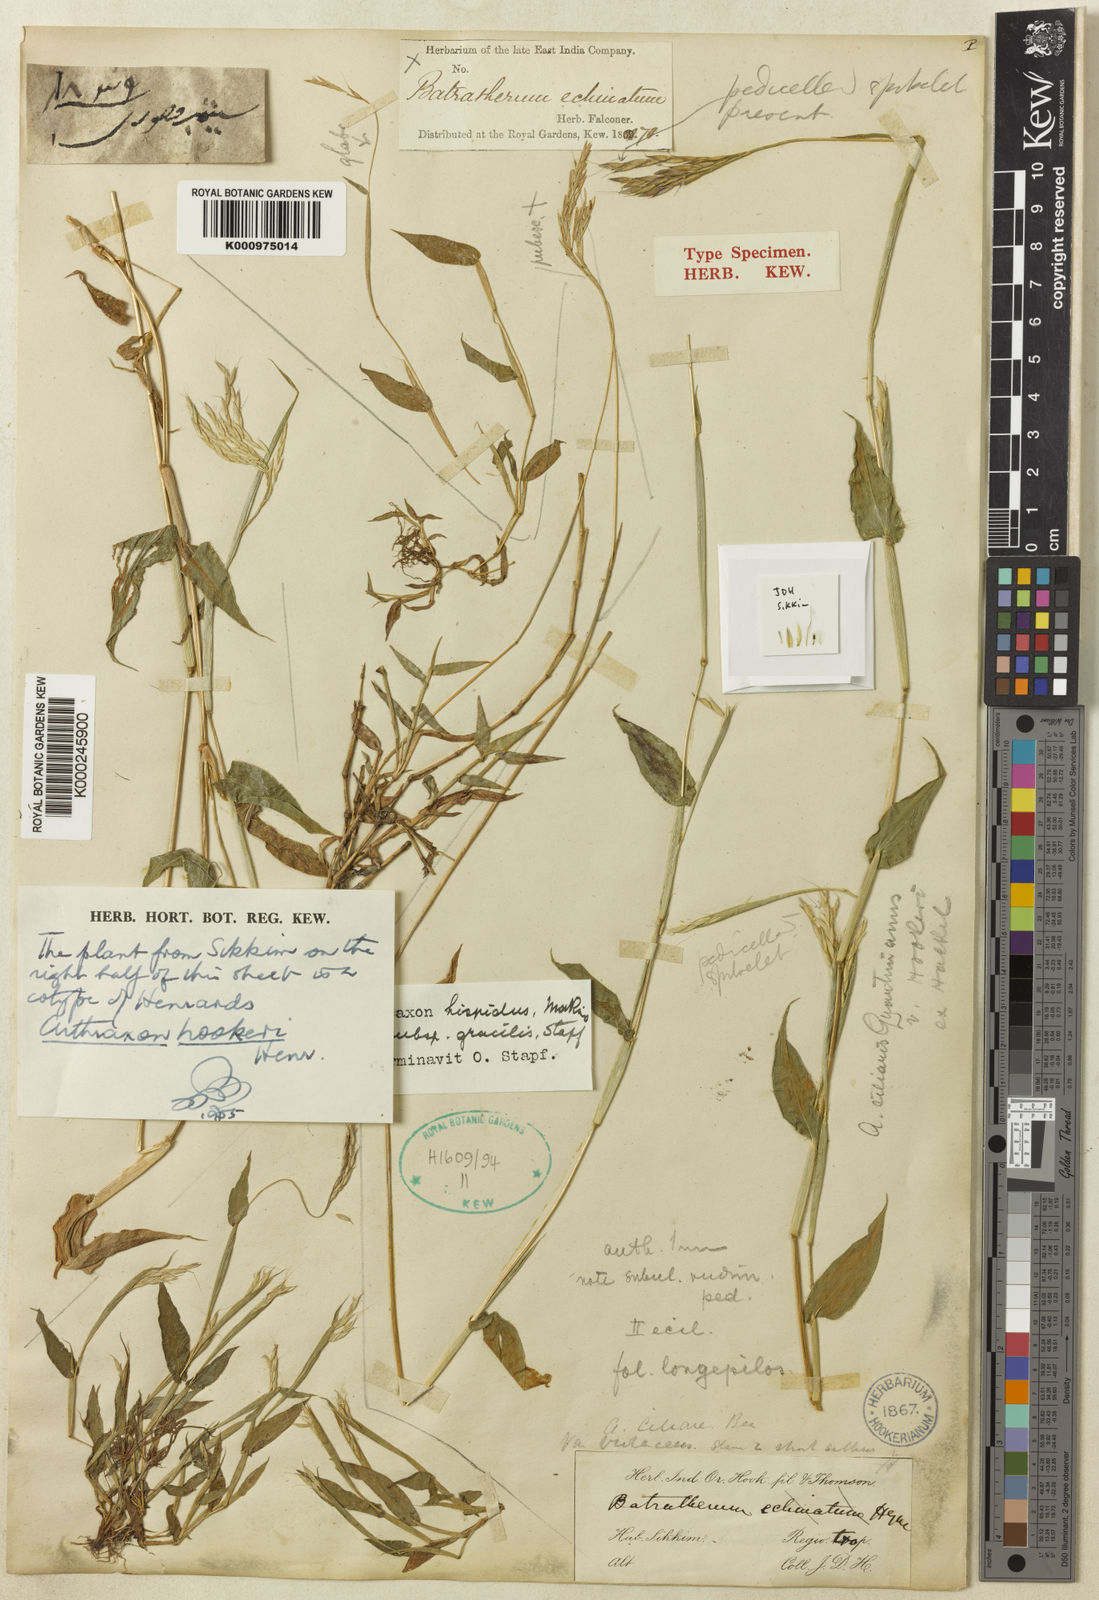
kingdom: Plantae
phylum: Tracheophyta
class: Liliopsida
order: Poales
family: Poaceae
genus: Arthraxon
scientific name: Arthraxon hispidus
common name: Small carpgrass
